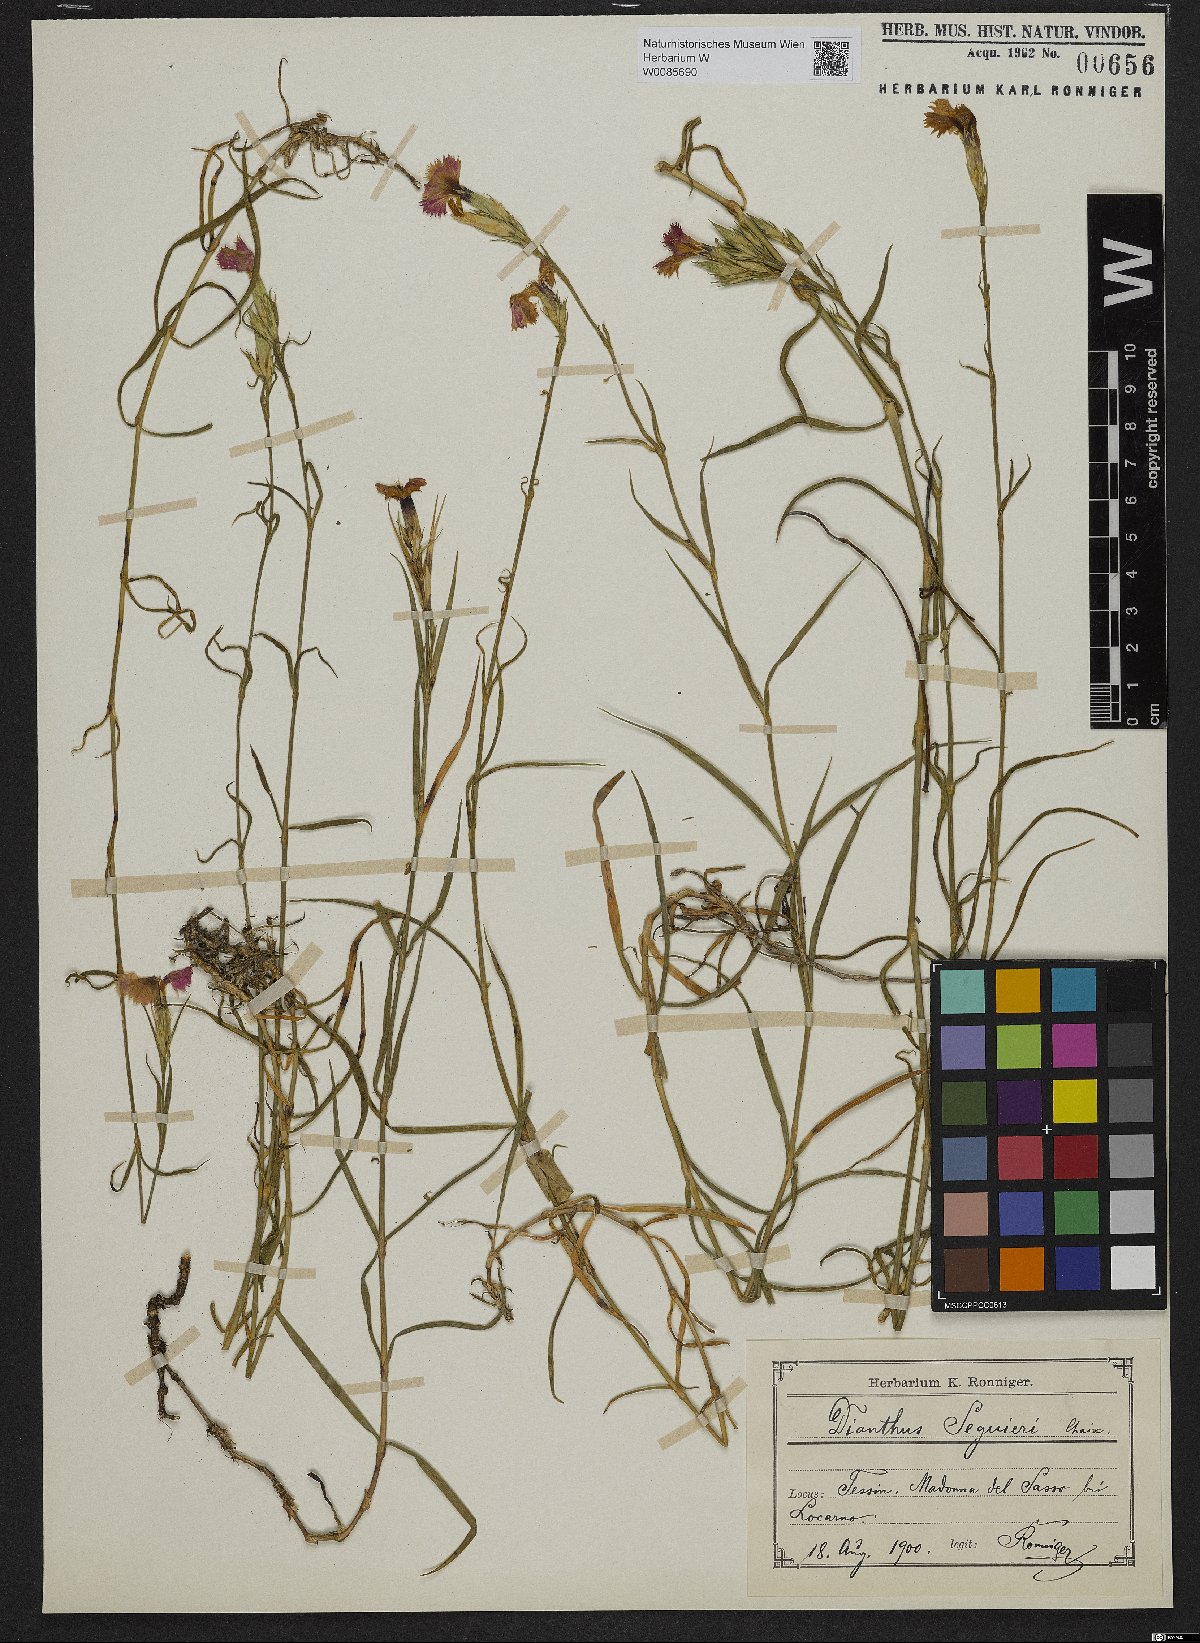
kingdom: Plantae
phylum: Tracheophyta
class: Magnoliopsida
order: Caryophyllales
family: Caryophyllaceae
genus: Dianthus
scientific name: Dianthus seguieri
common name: Ragged pink
